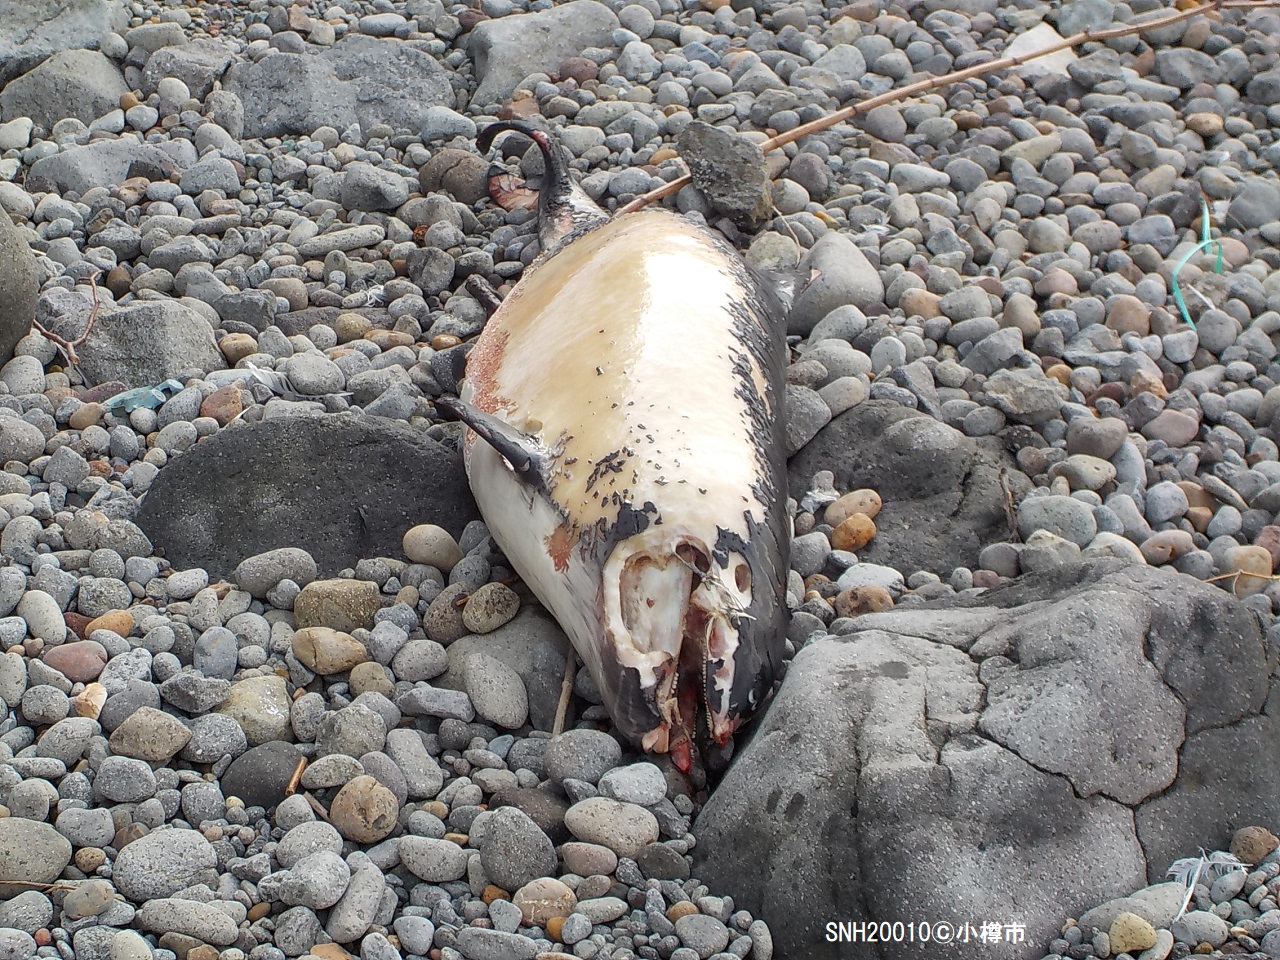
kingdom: Animalia
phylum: Chordata
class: Mammalia
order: Cetacea
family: Phocoenidae
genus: Phocoena
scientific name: Phocoena phocoena
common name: Harbour porpoise
